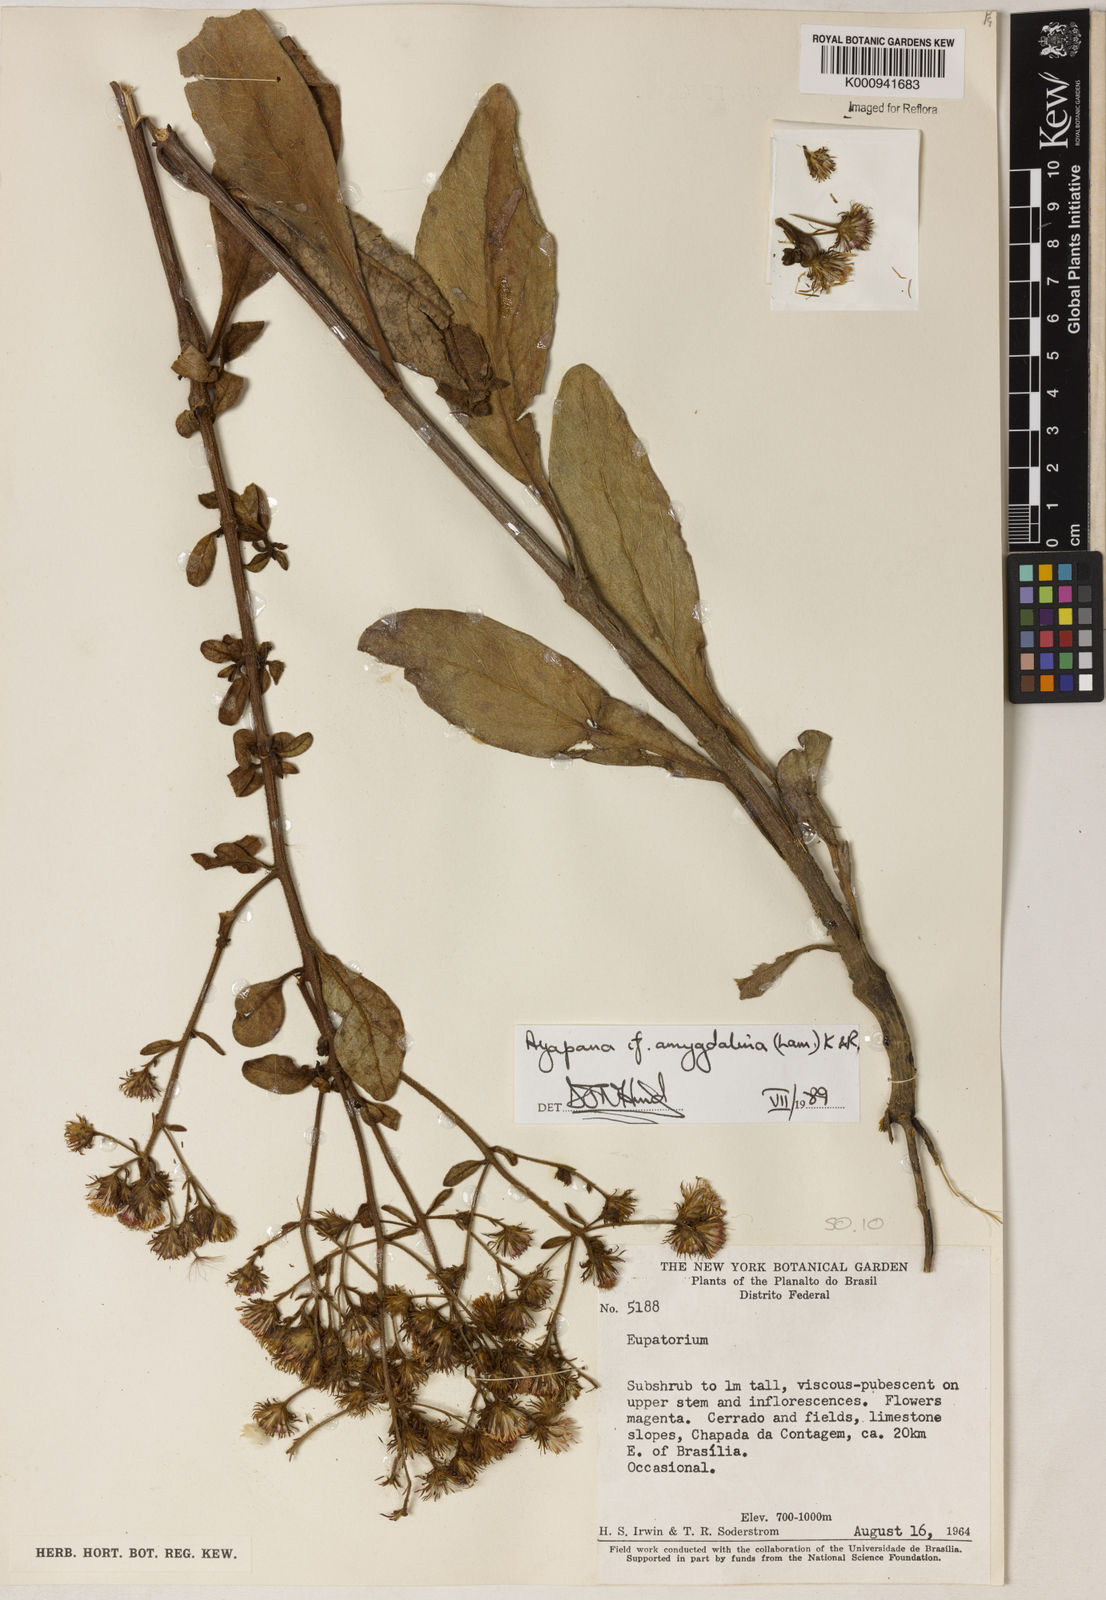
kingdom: Plantae
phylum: Tracheophyta
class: Magnoliopsida
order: Asterales
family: Asteraceae
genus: Ayapana
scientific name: Ayapana amygdalina
